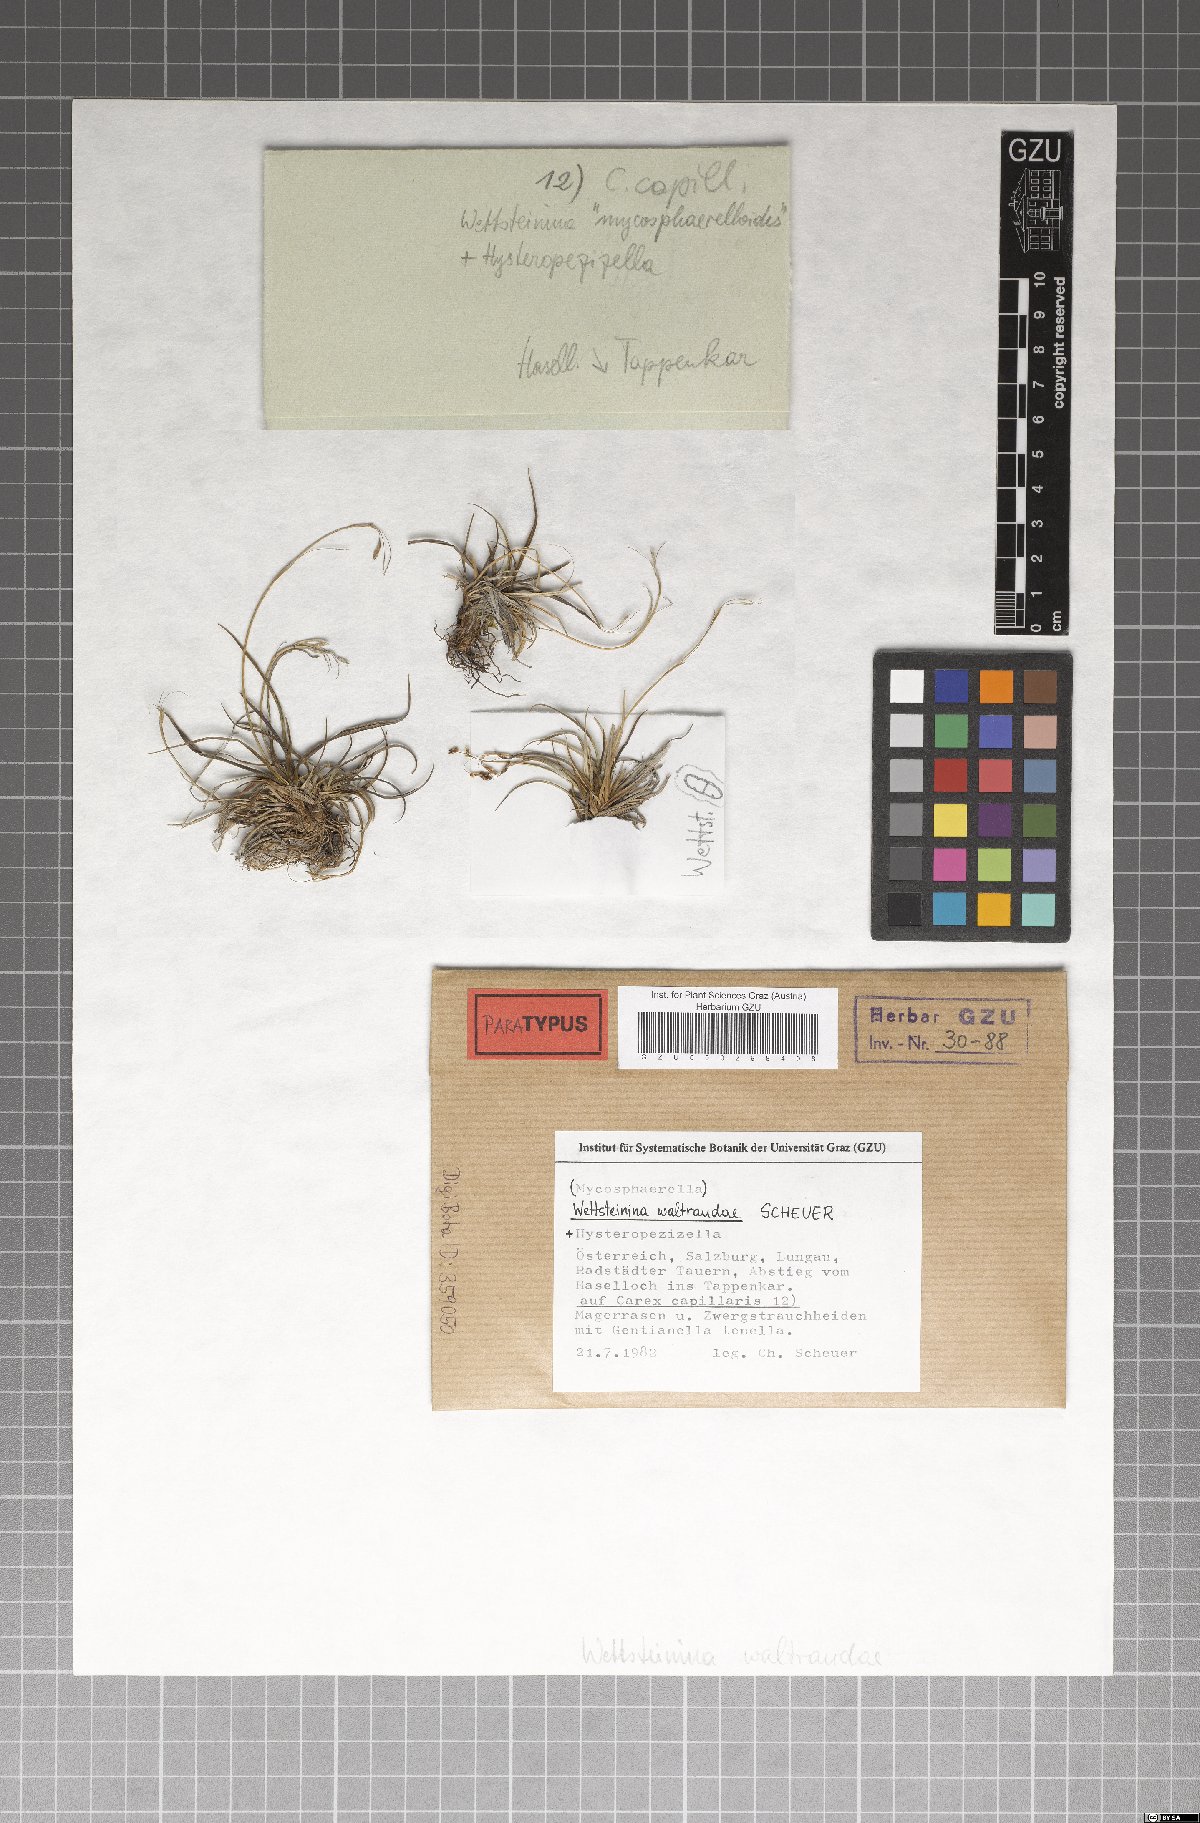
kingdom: Fungi
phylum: Ascomycota
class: Dothideomycetes
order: Pleosporales
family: Pleosporaceae
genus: Wettsteinina
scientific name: Wettsteinina waltraudiae
